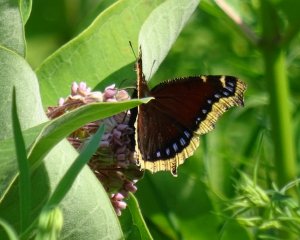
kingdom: Animalia
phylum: Arthropoda
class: Insecta
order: Lepidoptera
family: Nymphalidae
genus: Nymphalis
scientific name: Nymphalis antiopa
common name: Mourning Cloak
